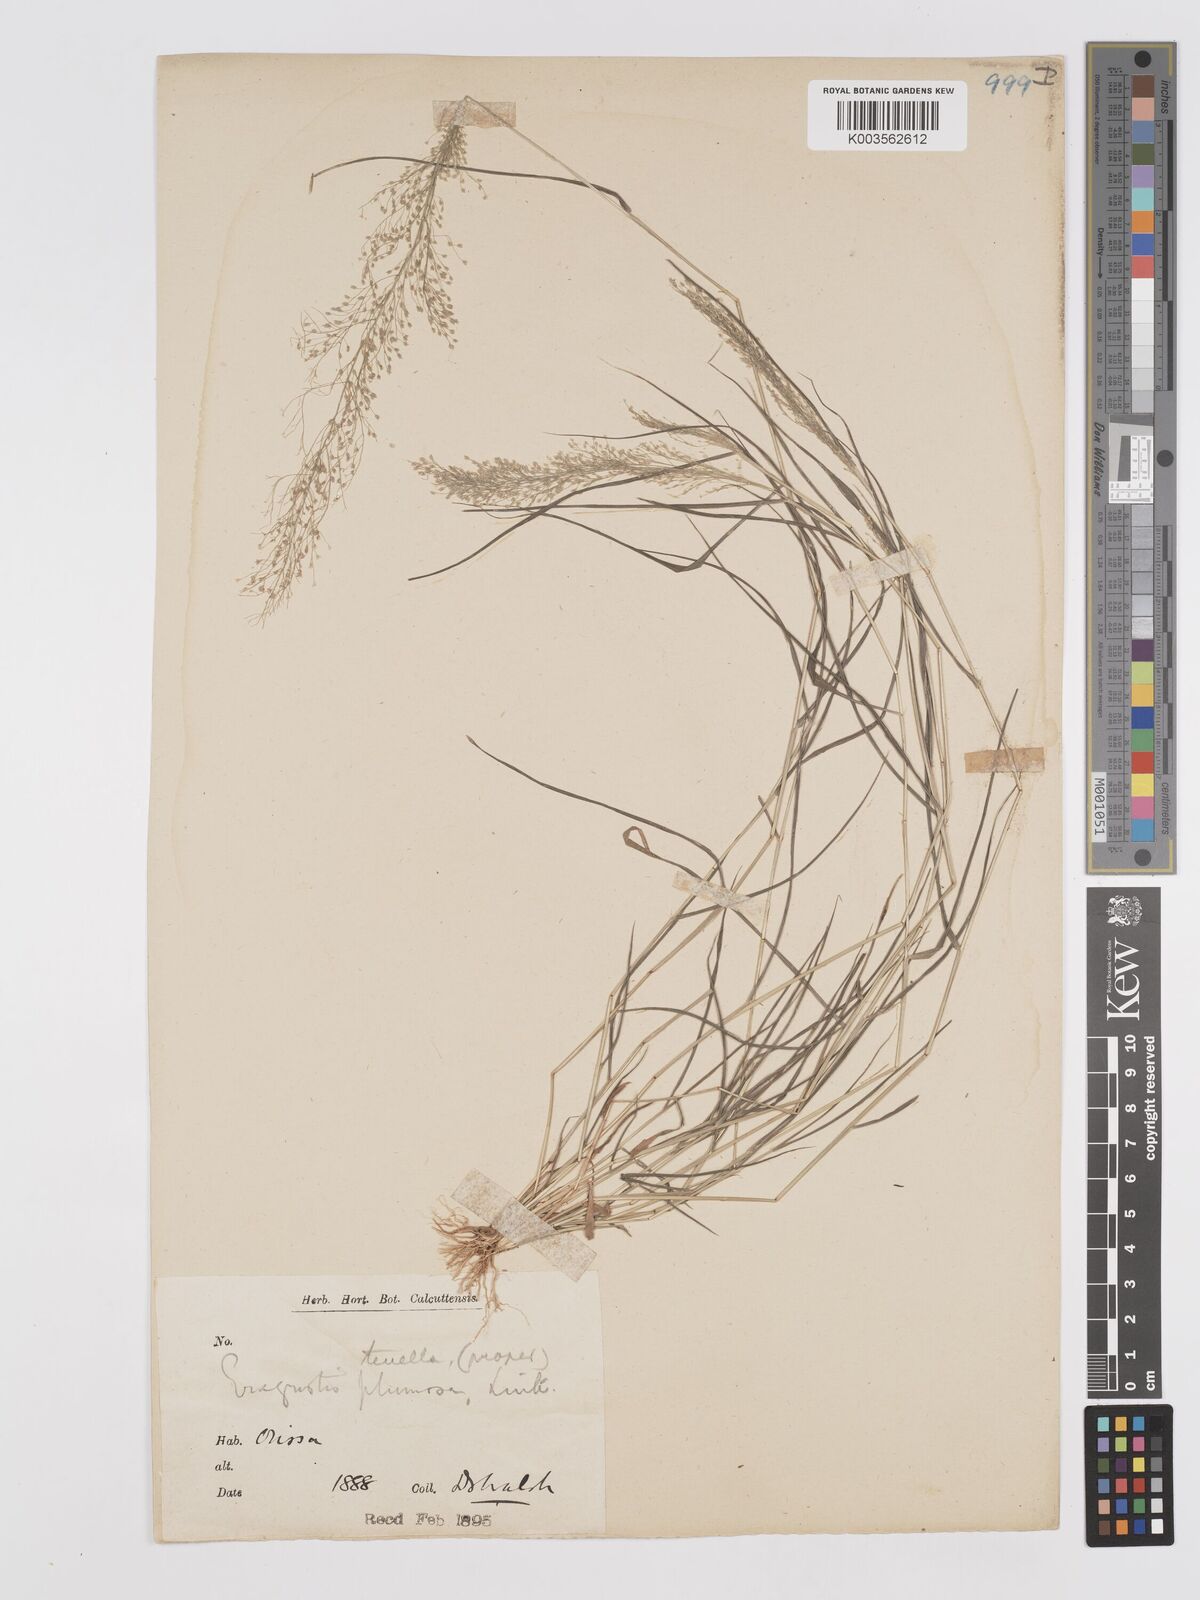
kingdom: Plantae
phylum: Tracheophyta
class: Liliopsida
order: Poales
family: Poaceae
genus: Eragrostis
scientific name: Eragrostis tenella
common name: Japanese lovegrass
